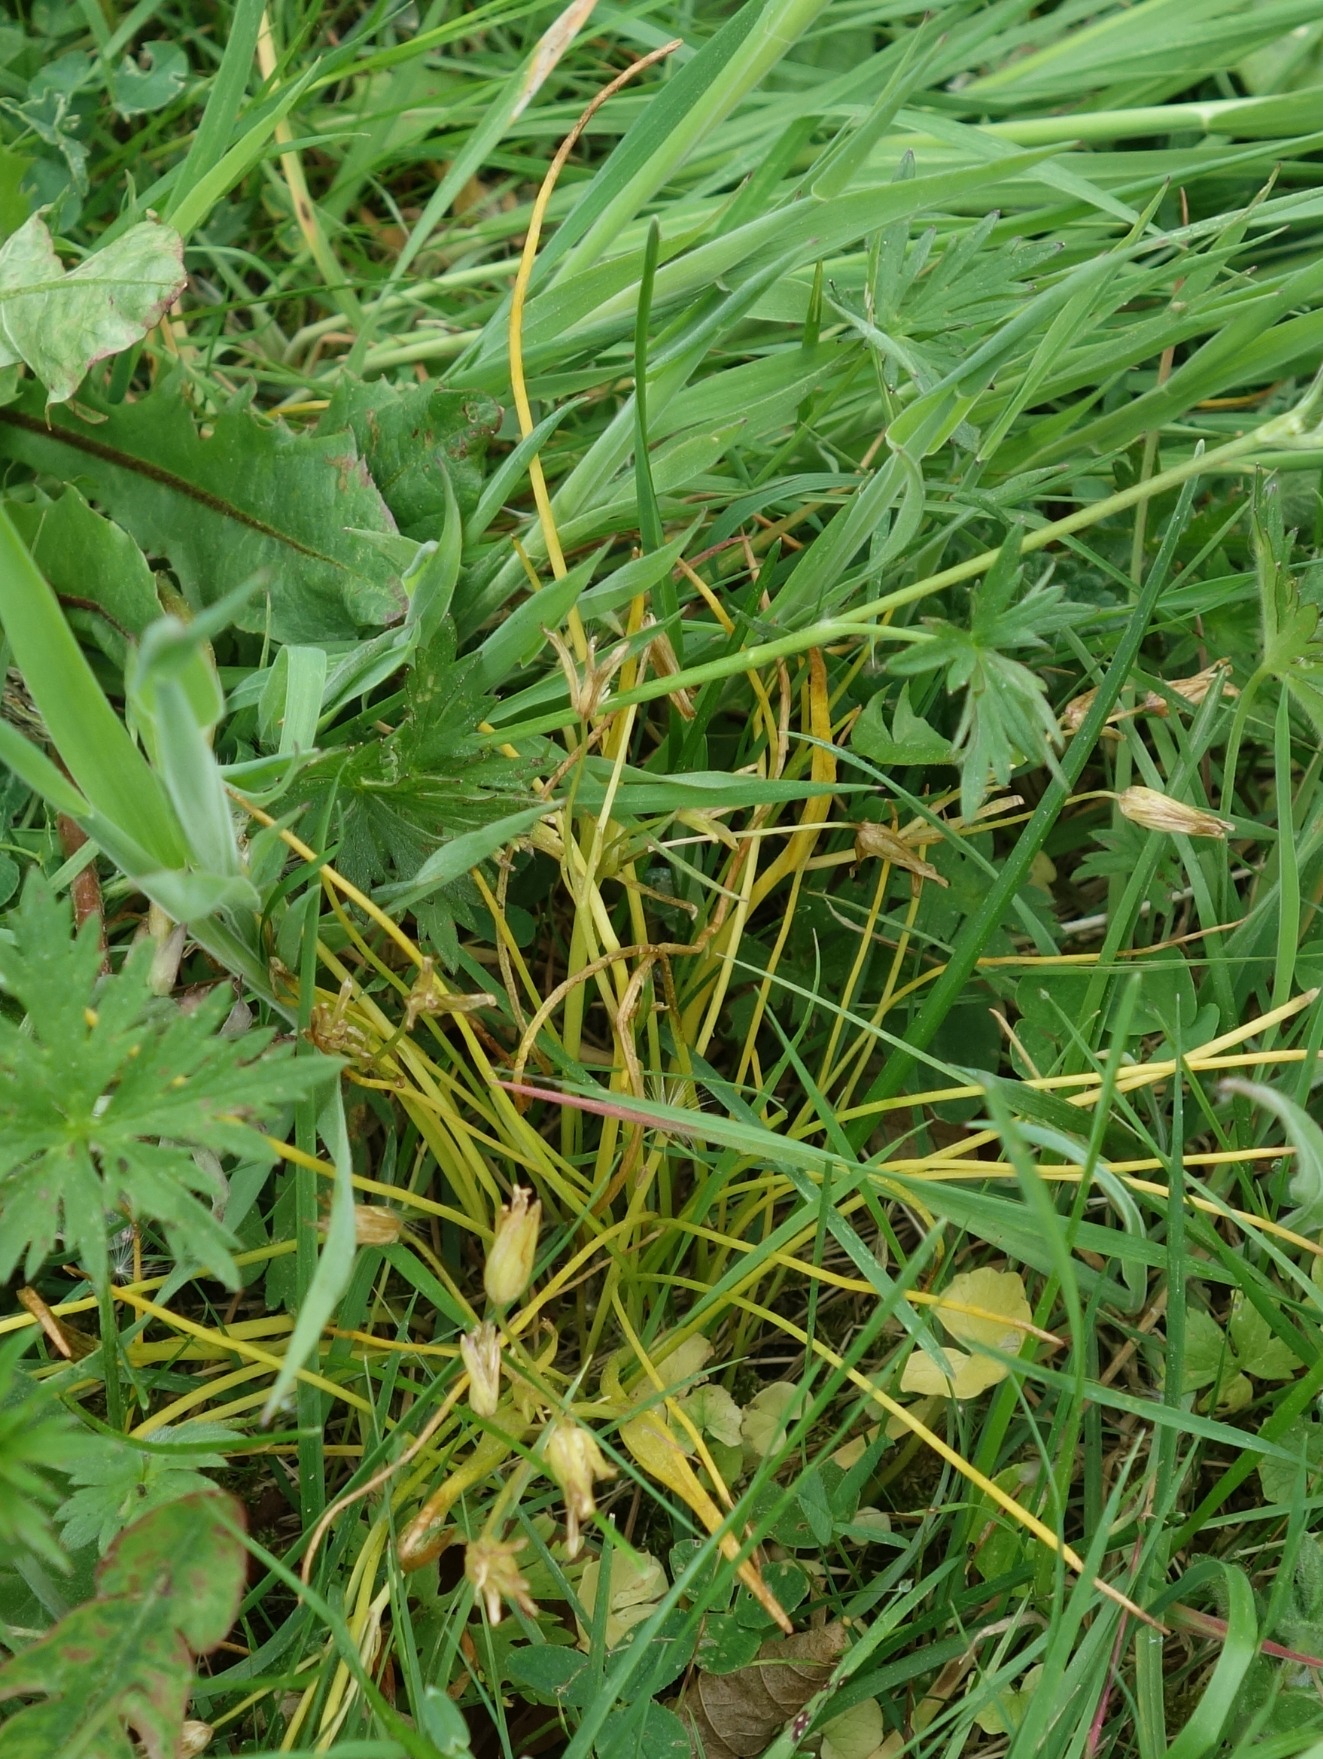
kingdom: Plantae
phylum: Tracheophyta
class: Liliopsida
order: Liliales
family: Liliaceae
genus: Gagea
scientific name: Gagea spathacea
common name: Hylster-guldstjerne
